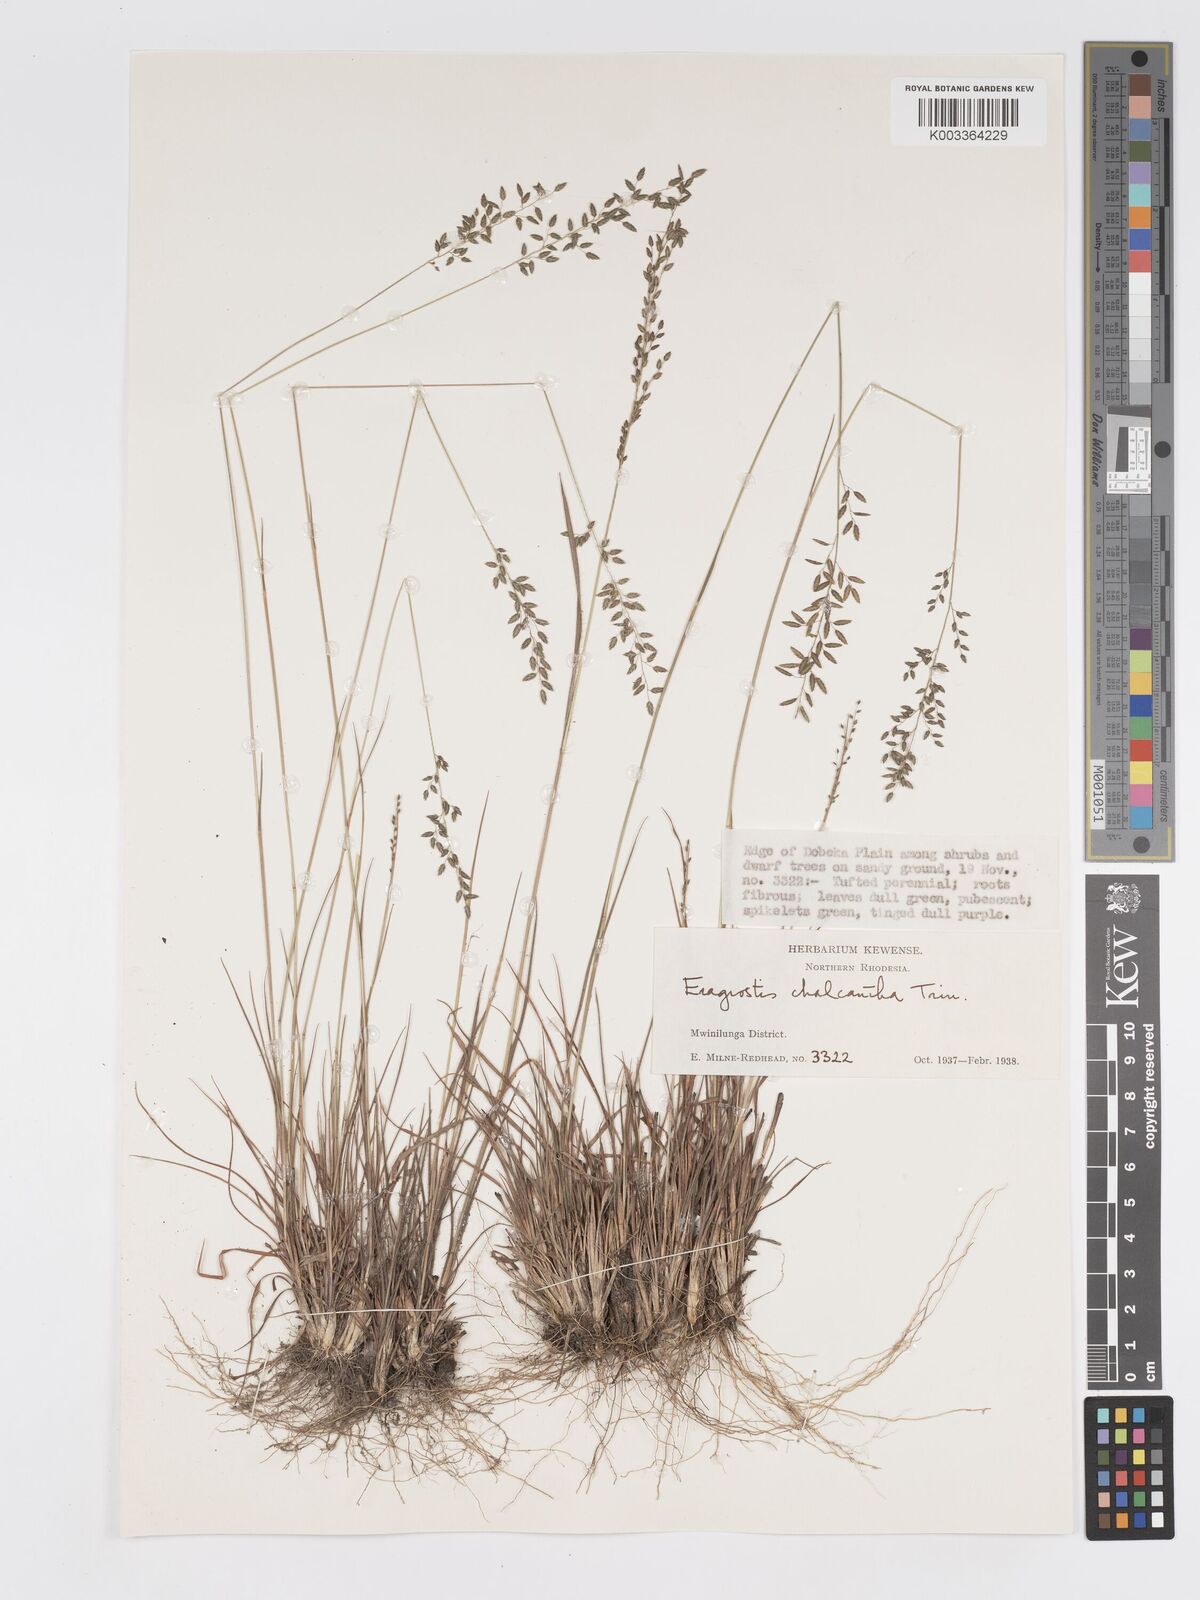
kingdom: Plantae
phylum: Tracheophyta
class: Liliopsida
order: Poales
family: Poaceae
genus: Eragrostis
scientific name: Eragrostis racemosa
